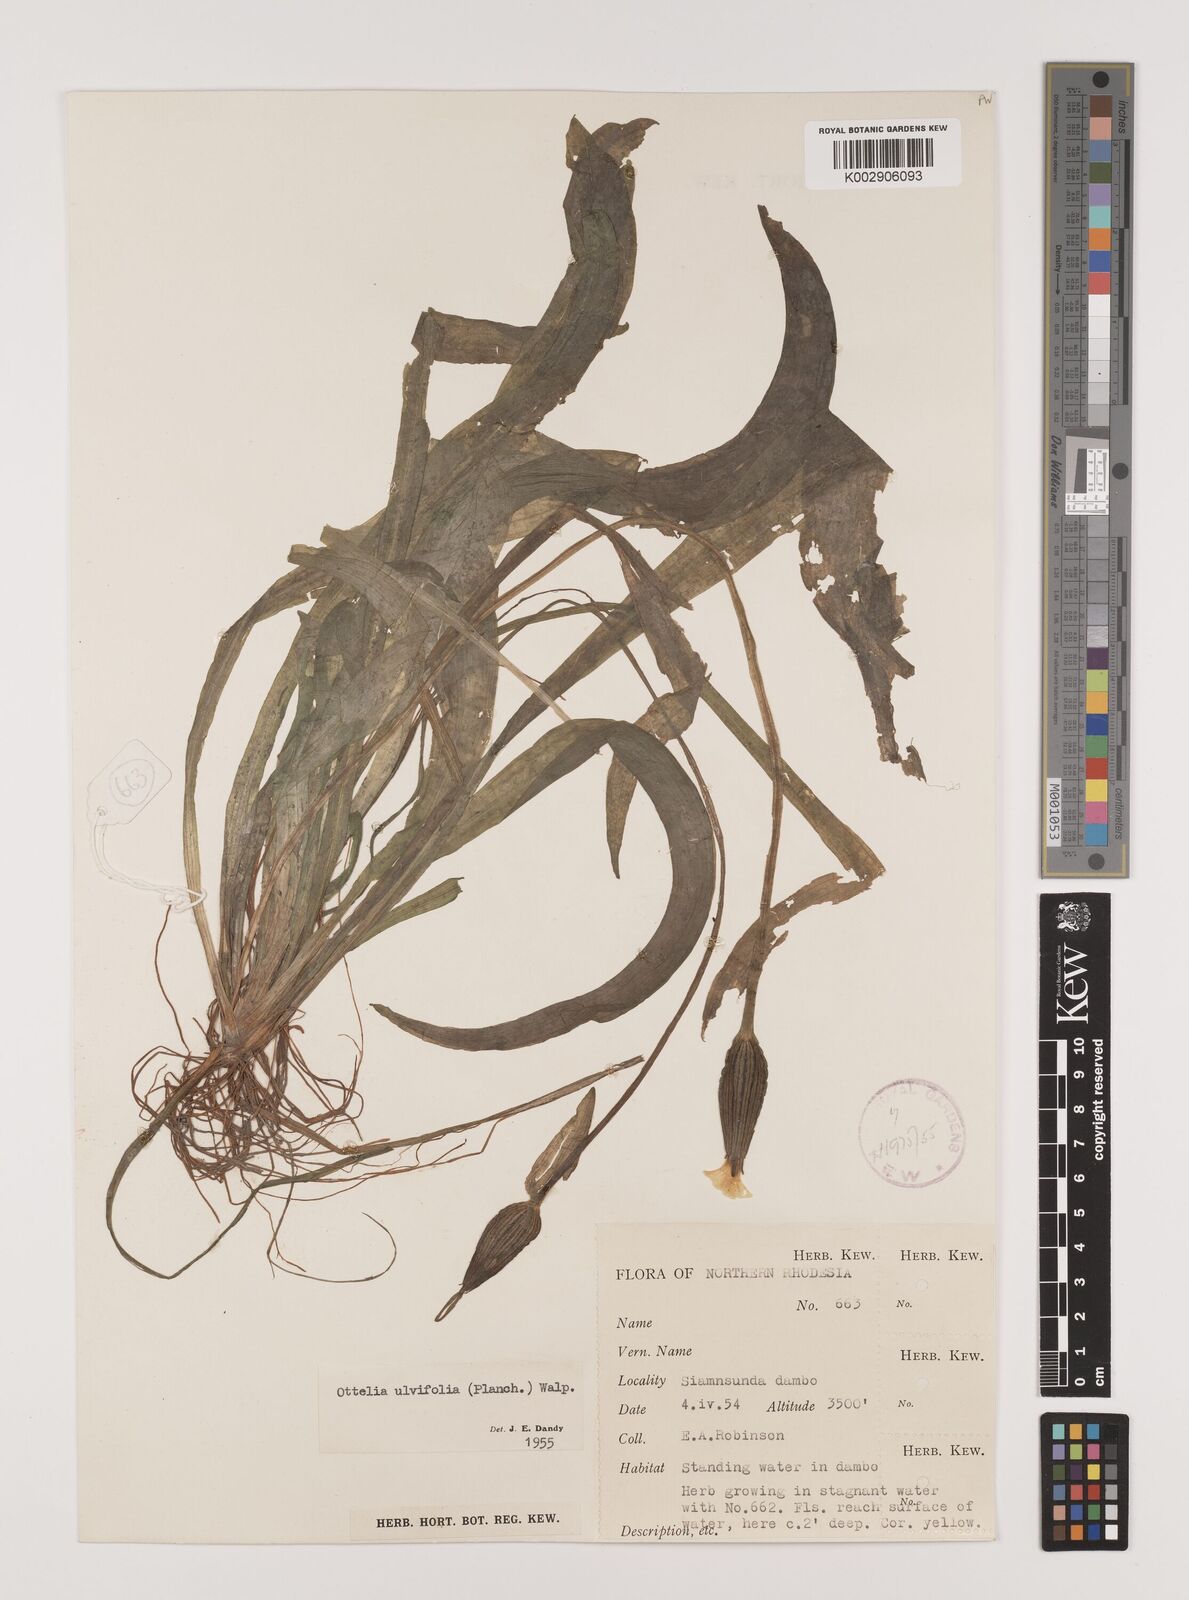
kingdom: Plantae
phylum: Tracheophyta
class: Liliopsida
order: Alismatales
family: Hydrocharitaceae
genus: Ottelia
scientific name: Ottelia ulvifolia
